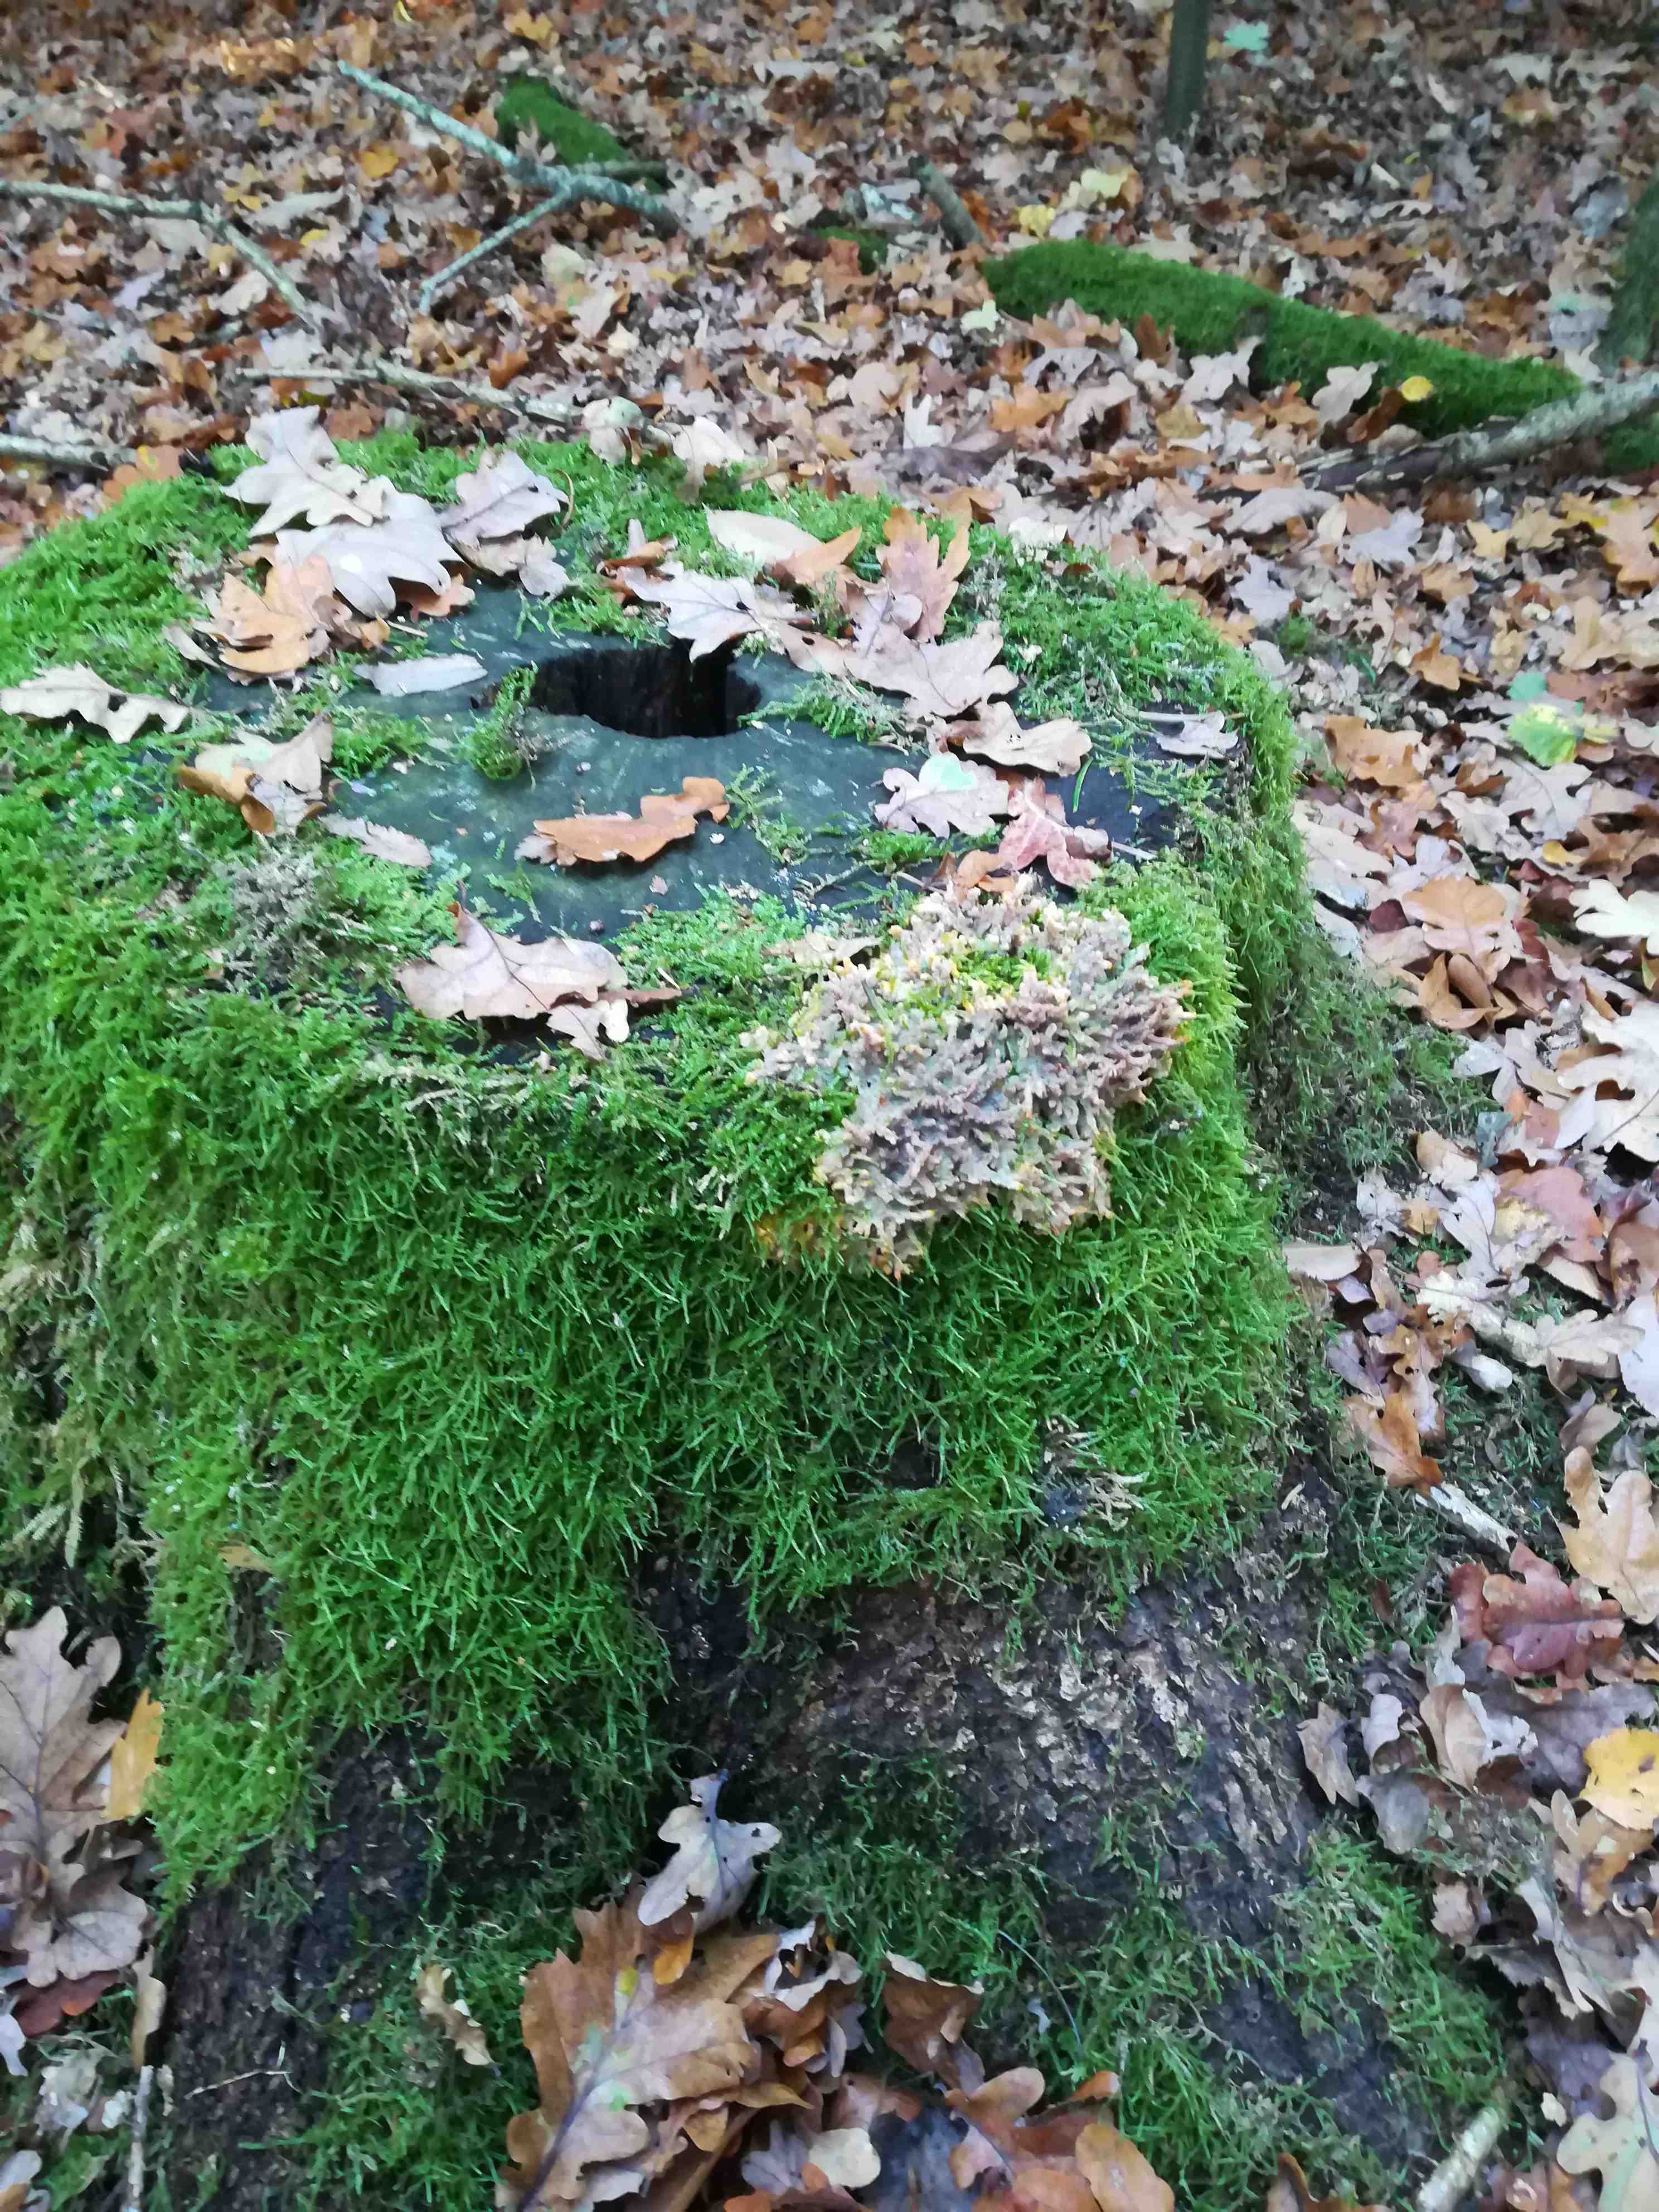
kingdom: Fungi
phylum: Basidiomycota
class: Agaricomycetes
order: Polyporales
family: Meruliaceae
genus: Phlebia
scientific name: Phlebia radiata
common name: stråle-åresvamp
